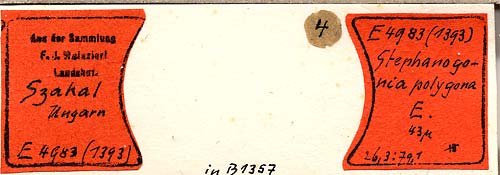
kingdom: Chromista
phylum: Ochrophyta
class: Bacillariophyceae
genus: Stephanogonia
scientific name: Stephanogonia polygona
